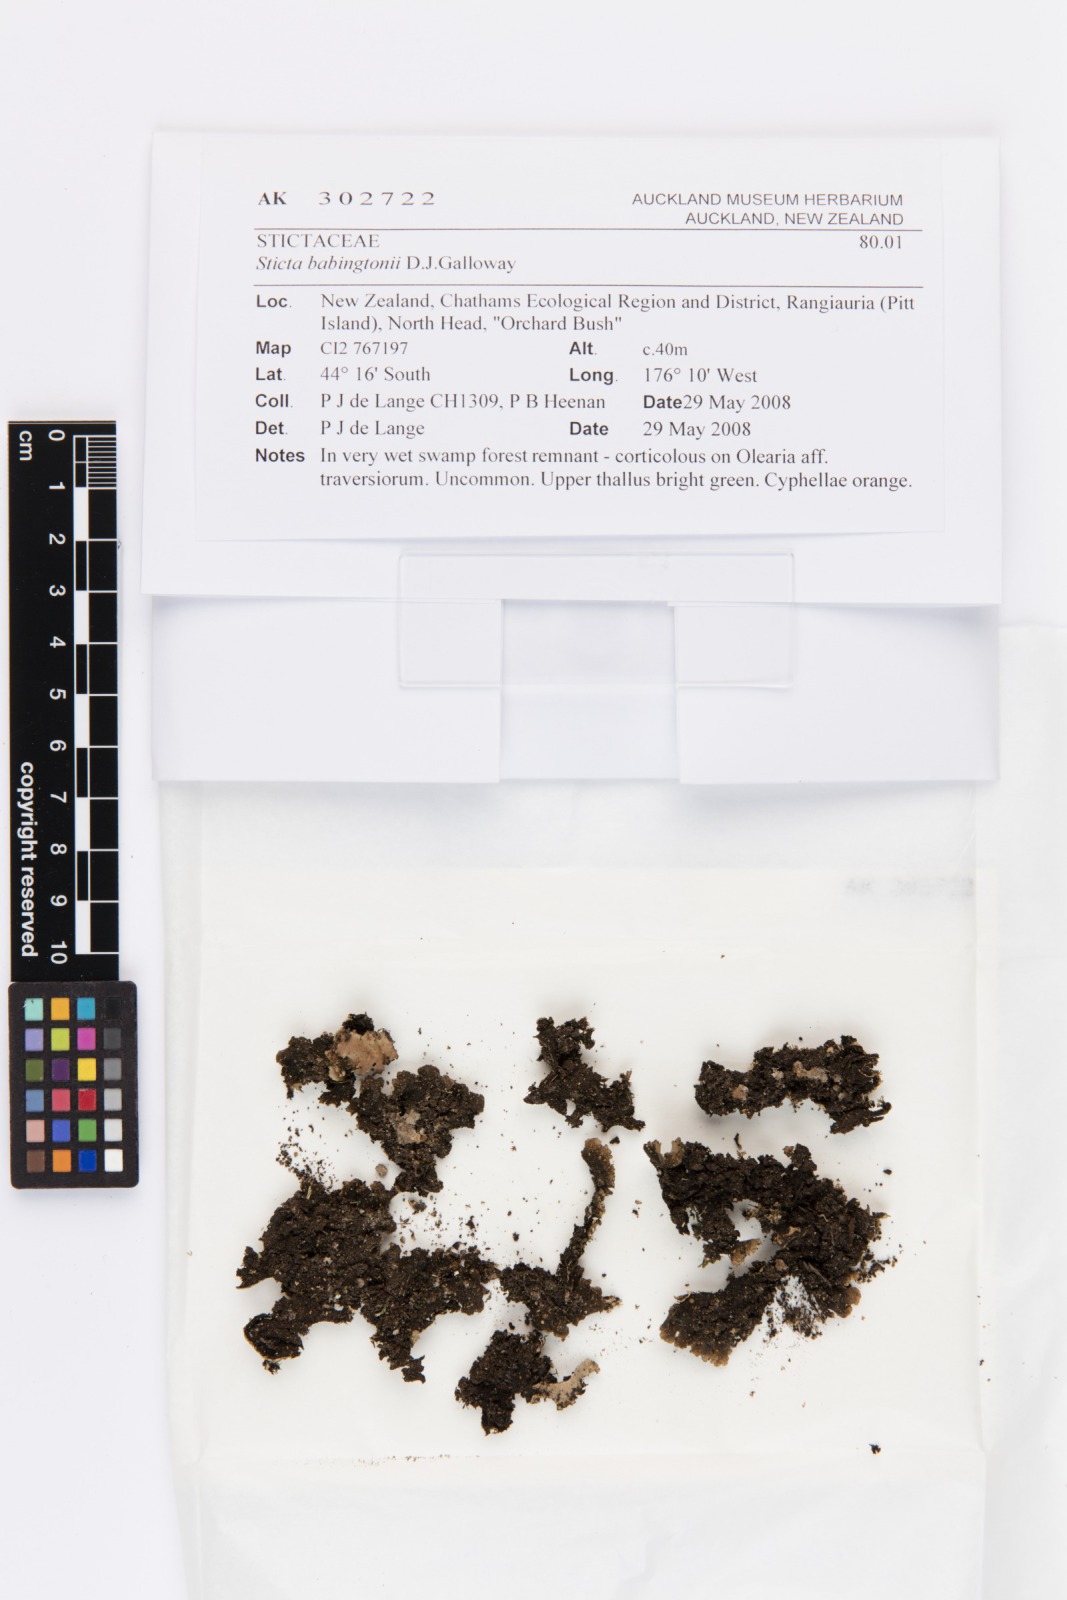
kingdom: Fungi
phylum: Ascomycota
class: Lecanoromycetes
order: Peltigerales
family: Lobariaceae
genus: Sticta
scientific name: Sticta babingtonii
